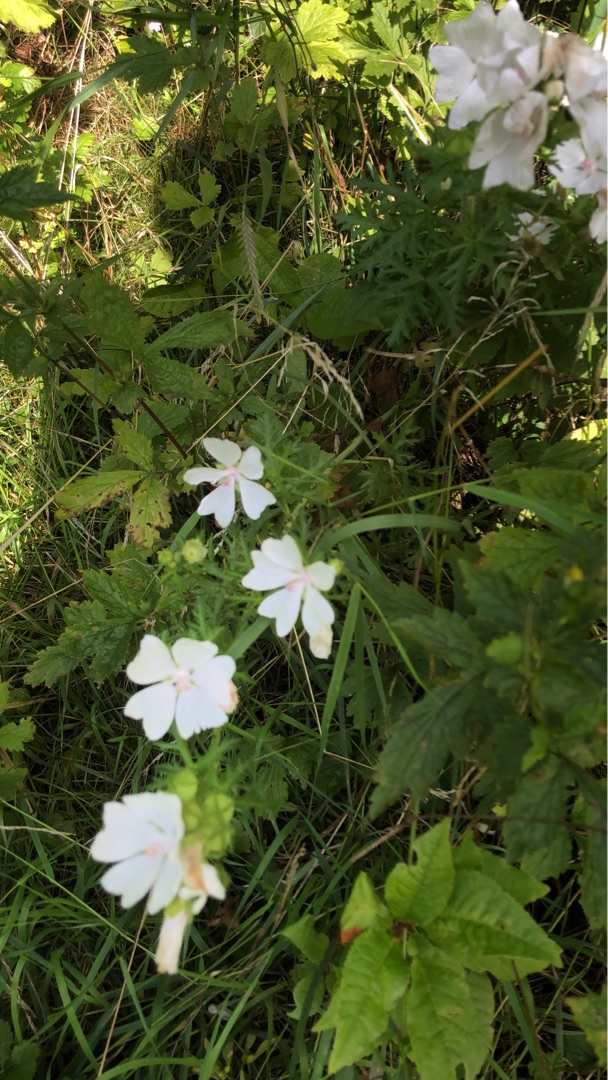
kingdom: Plantae
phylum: Tracheophyta
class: Magnoliopsida
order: Malvales
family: Malvaceae
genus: Malva
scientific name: Malva
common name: Katostslægten
